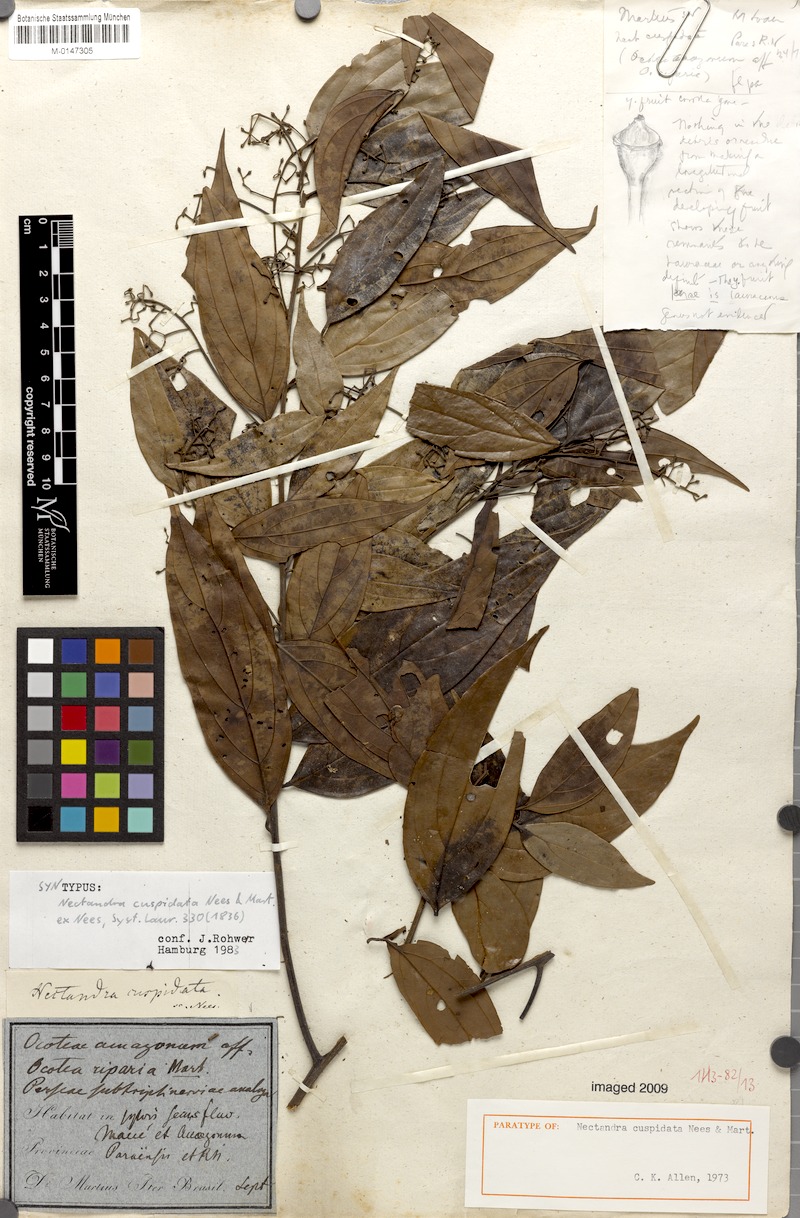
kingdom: Plantae
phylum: Tracheophyta
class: Magnoliopsida
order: Laurales
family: Lauraceae
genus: Nectandra
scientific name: Nectandra cuspidata
